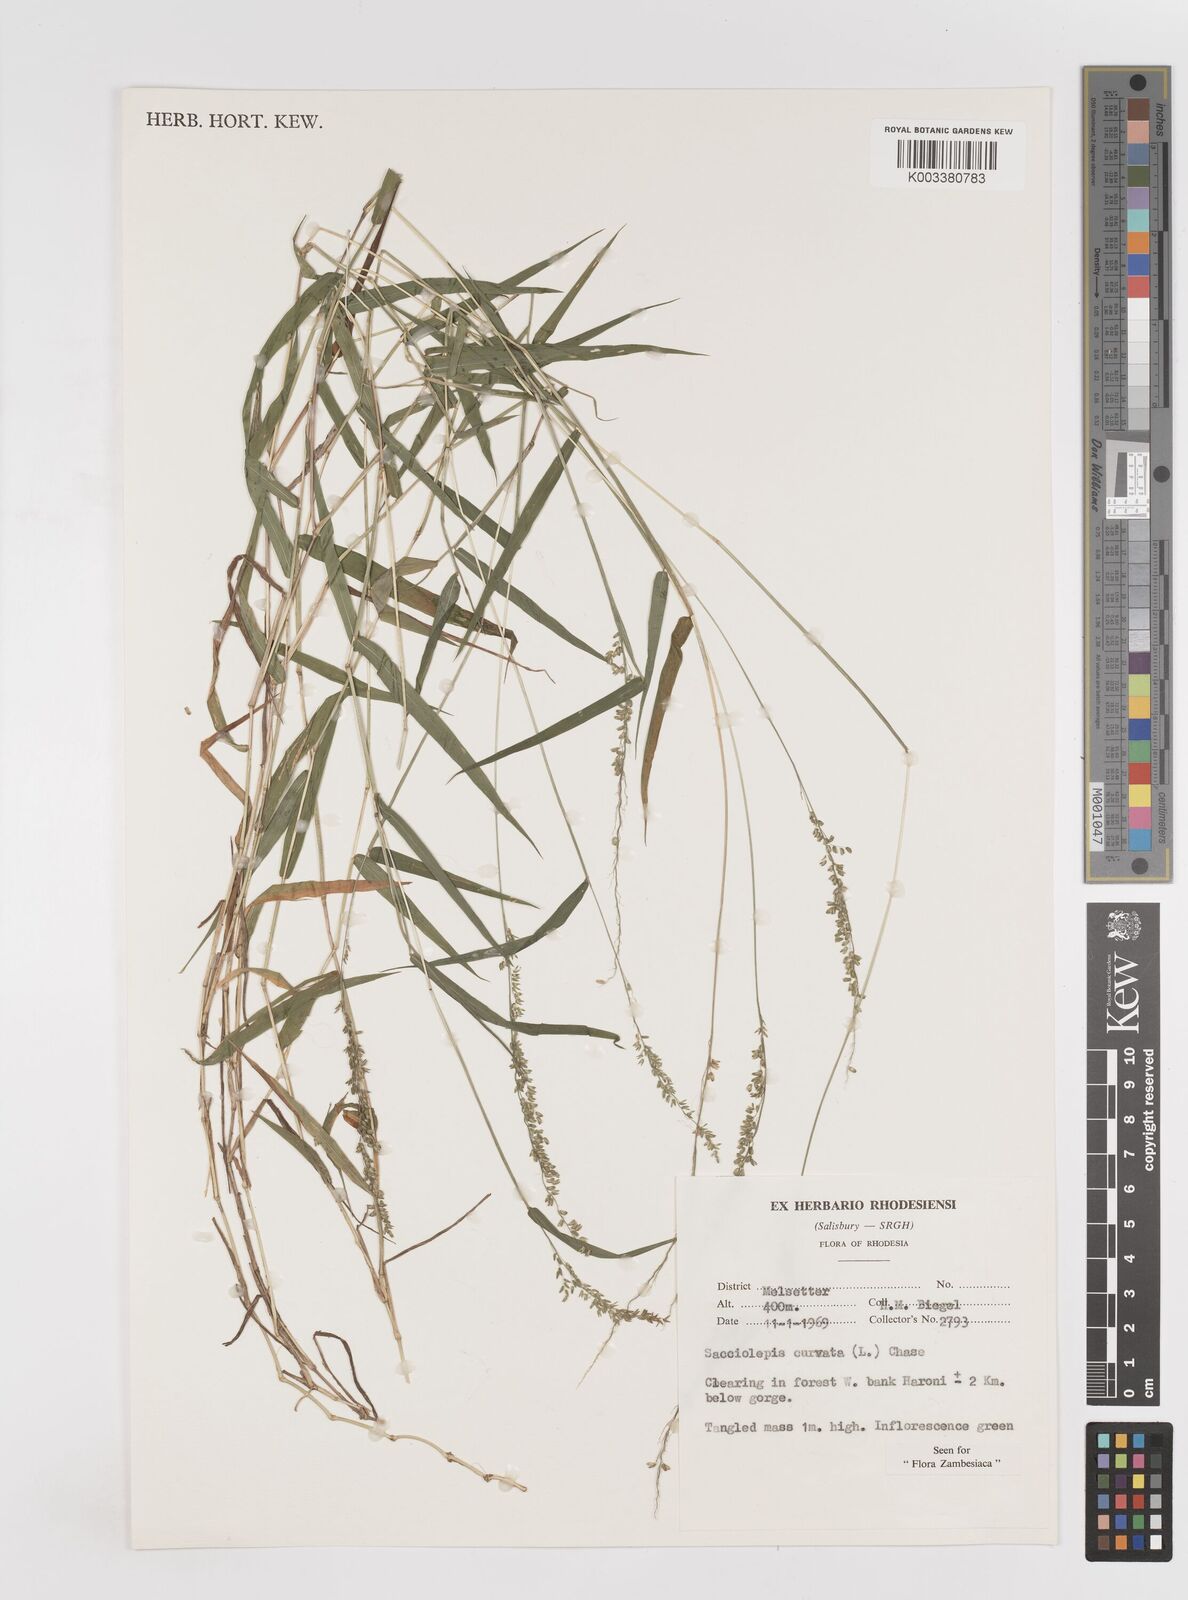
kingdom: Plantae
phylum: Tracheophyta
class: Liliopsida
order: Poales
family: Poaceae
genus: Sacciolepis
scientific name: Sacciolepis curvata
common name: Forest hood grass
